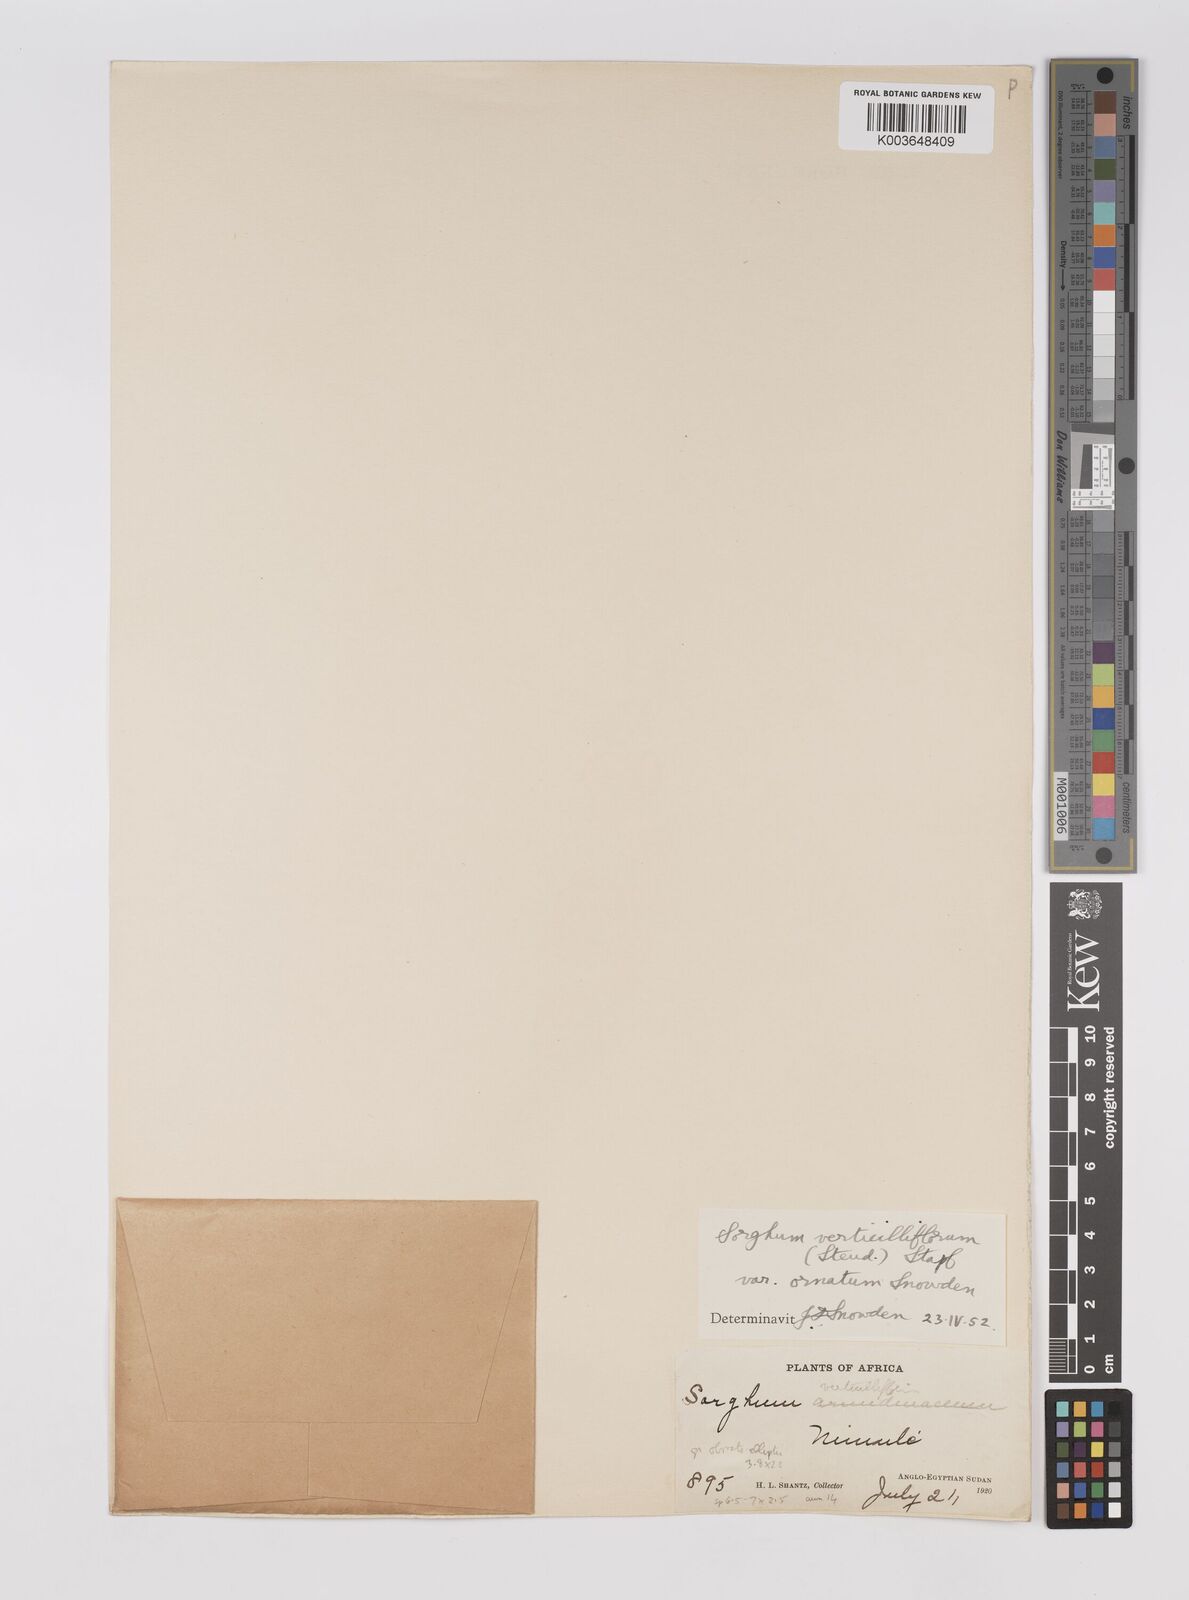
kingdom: Plantae
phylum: Tracheophyta
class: Liliopsida
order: Poales
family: Poaceae
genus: Sorghum
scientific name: Sorghum arundinaceum
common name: Sorghum
